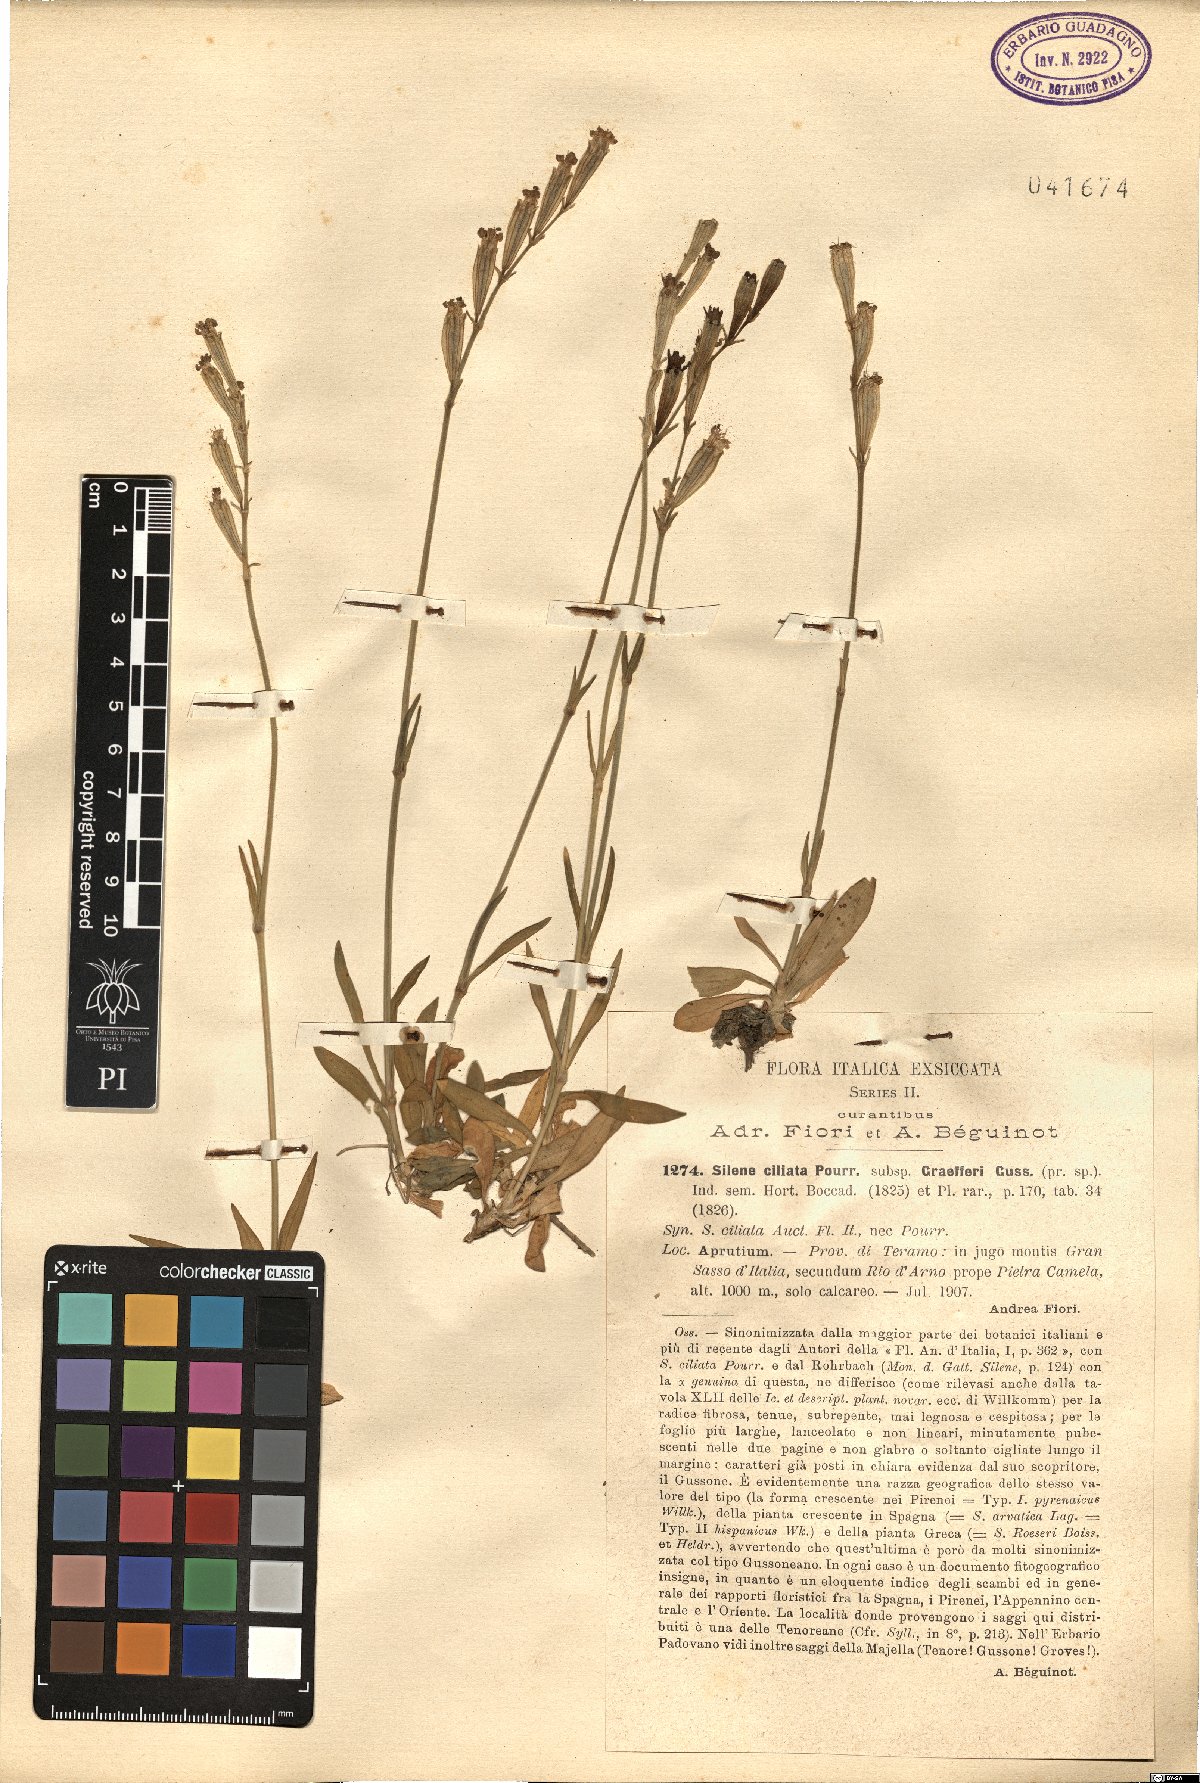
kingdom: Plantae
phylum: Tracheophyta
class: Magnoliopsida
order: Caryophyllales
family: Caryophyllaceae
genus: Silene
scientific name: Silene ciliata
